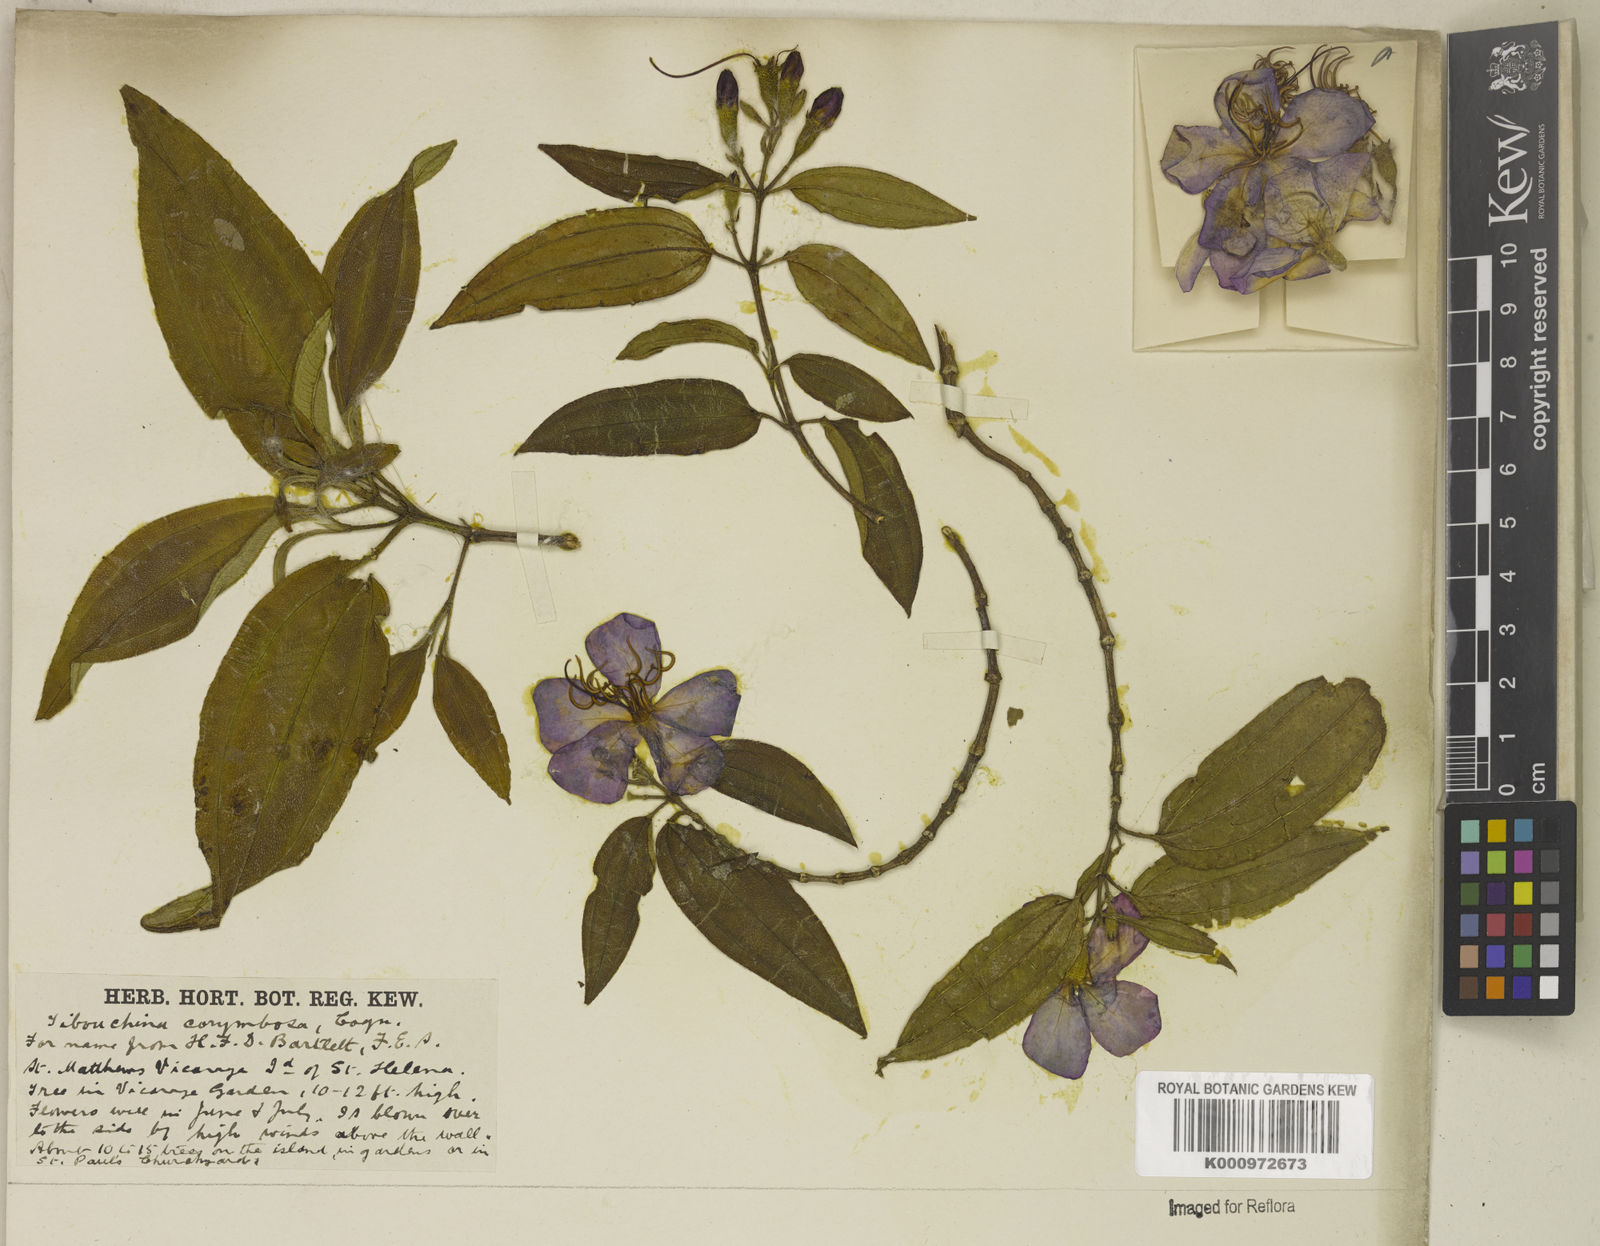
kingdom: Plantae
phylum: Tracheophyta
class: Magnoliopsida
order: Myrtales
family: Melastomataceae
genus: Pleroma
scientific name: Pleroma vimineum
